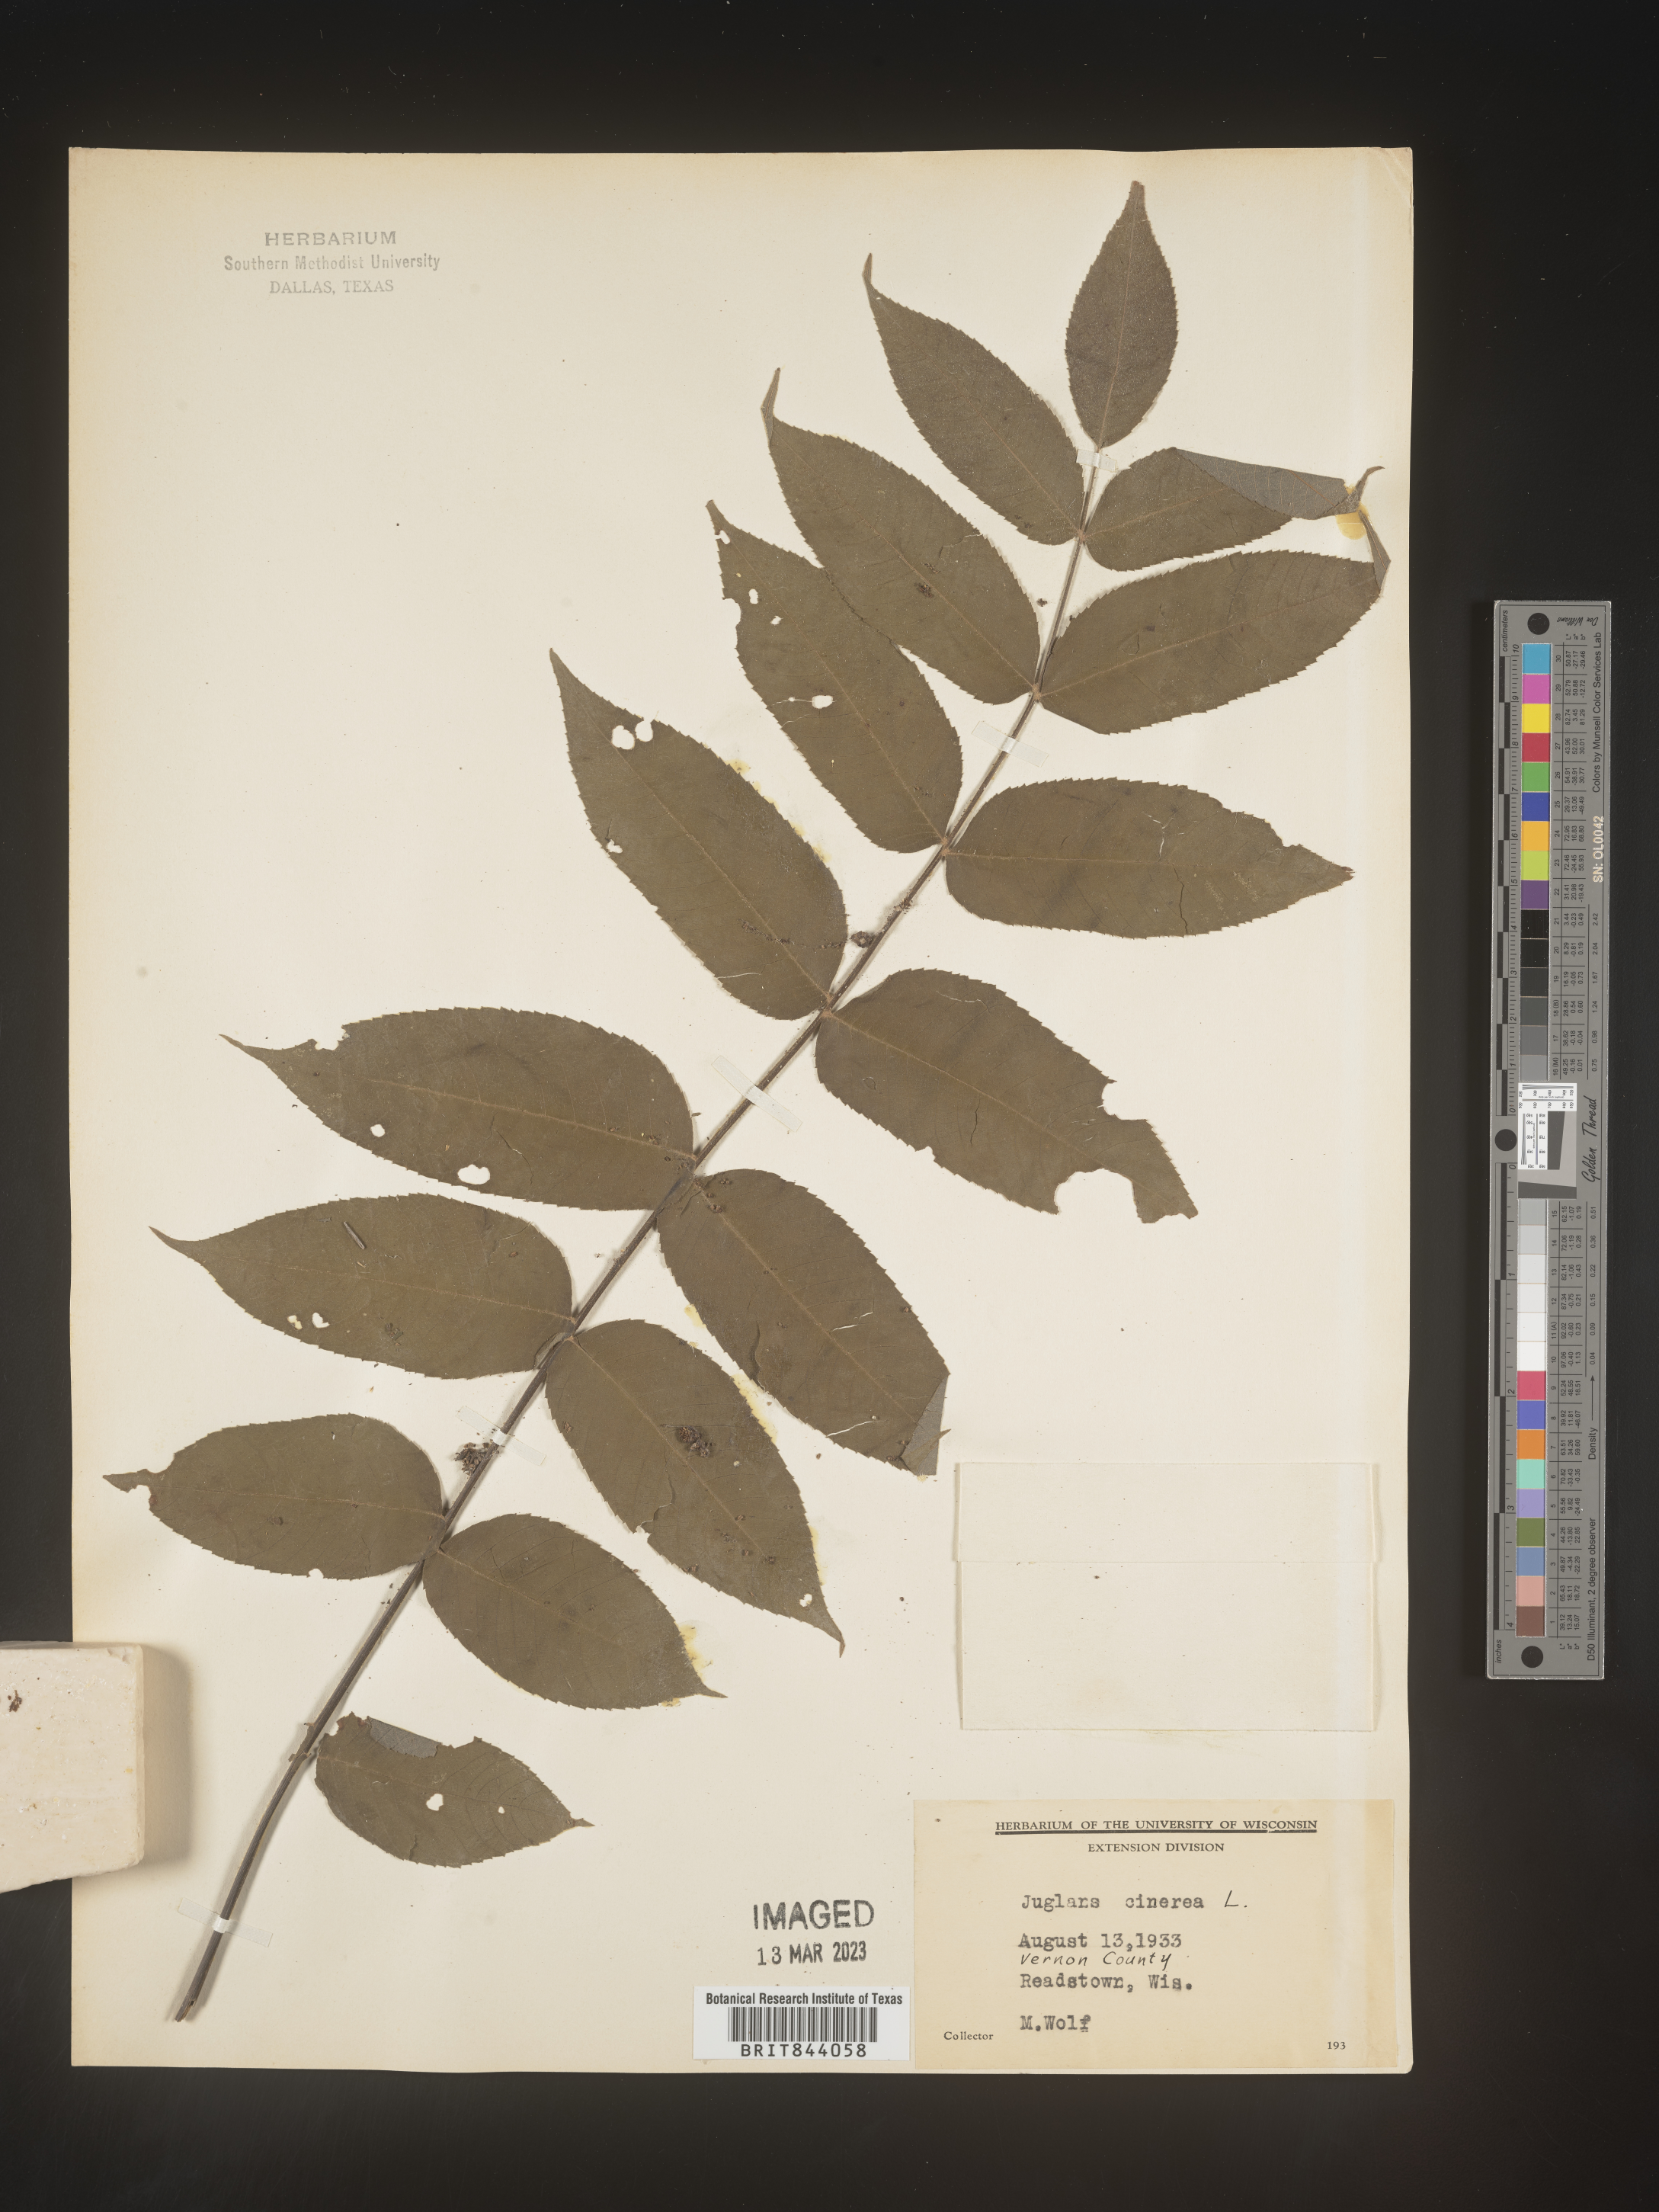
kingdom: Plantae
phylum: Tracheophyta
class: Magnoliopsida
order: Fagales
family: Juglandaceae
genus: Juglans
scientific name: Juglans cinerea
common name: Butternut
